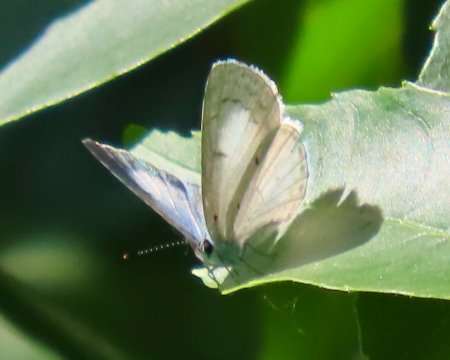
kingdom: Animalia
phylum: Arthropoda
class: Insecta
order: Lepidoptera
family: Lycaenidae
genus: Cyaniris
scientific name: Cyaniris neglecta
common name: Summer Azure
